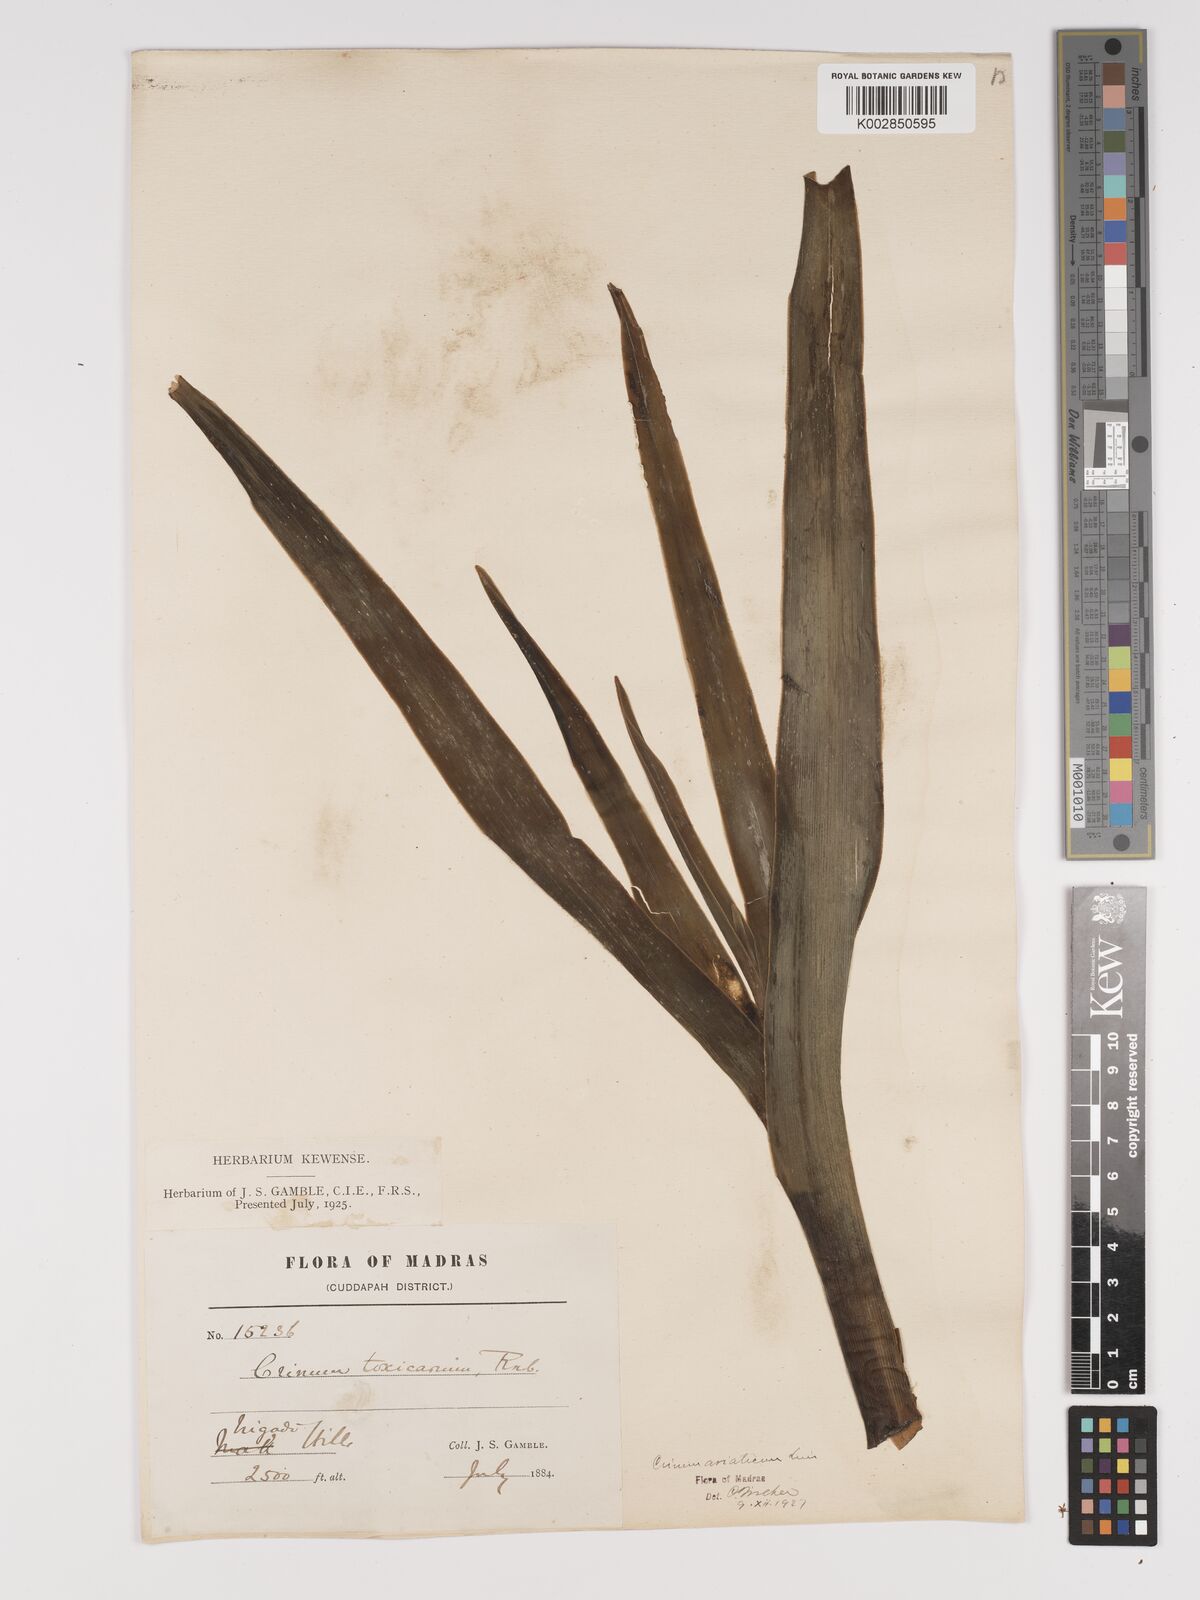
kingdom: Plantae
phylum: Tracheophyta
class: Liliopsida
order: Asparagales
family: Amaryllidaceae
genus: Crinum
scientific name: Crinum asiaticum
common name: Poisonbulb
